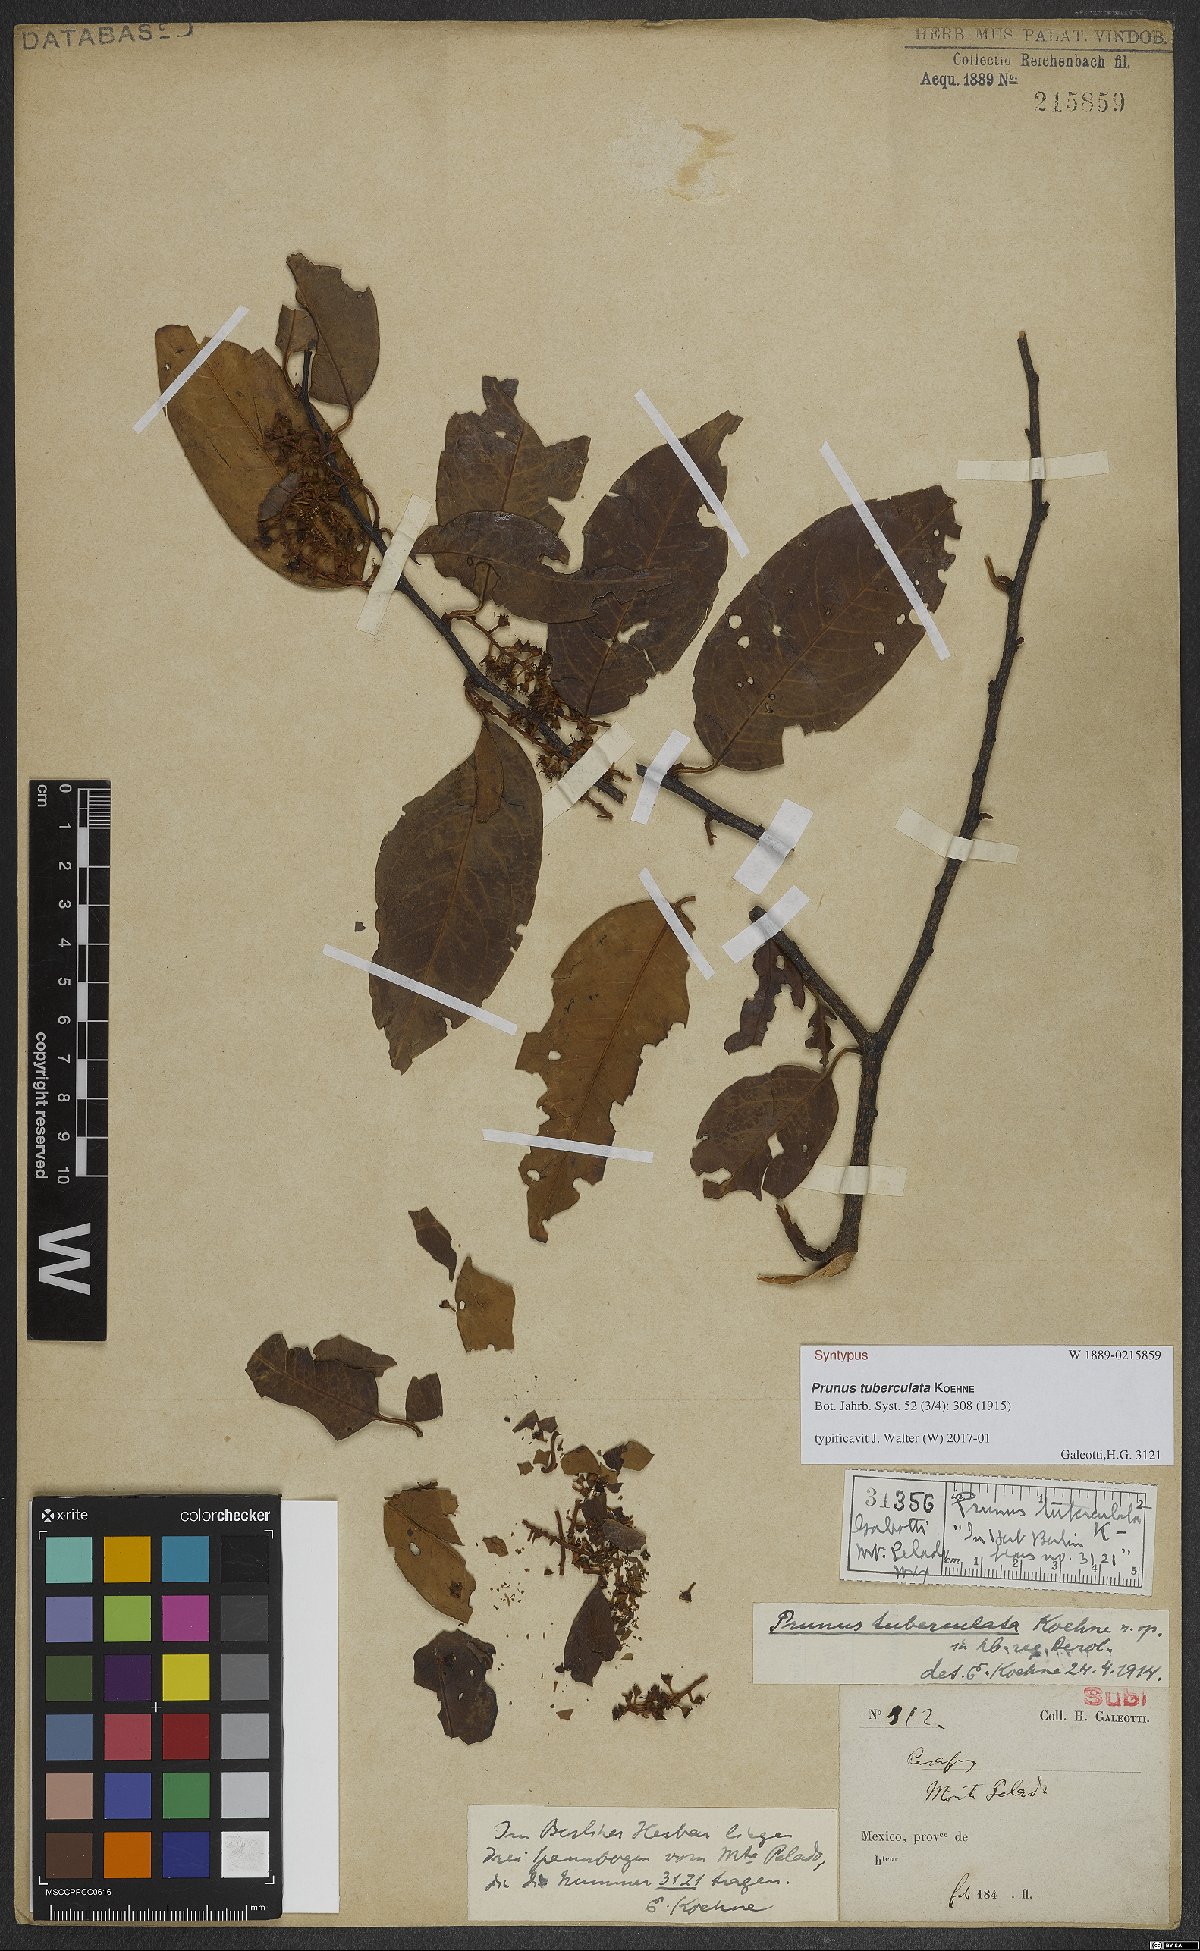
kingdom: Plantae
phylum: Tracheophyta
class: Magnoliopsida
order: Rosales
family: Rosaceae
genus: Prunus
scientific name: Prunus tuberculata
